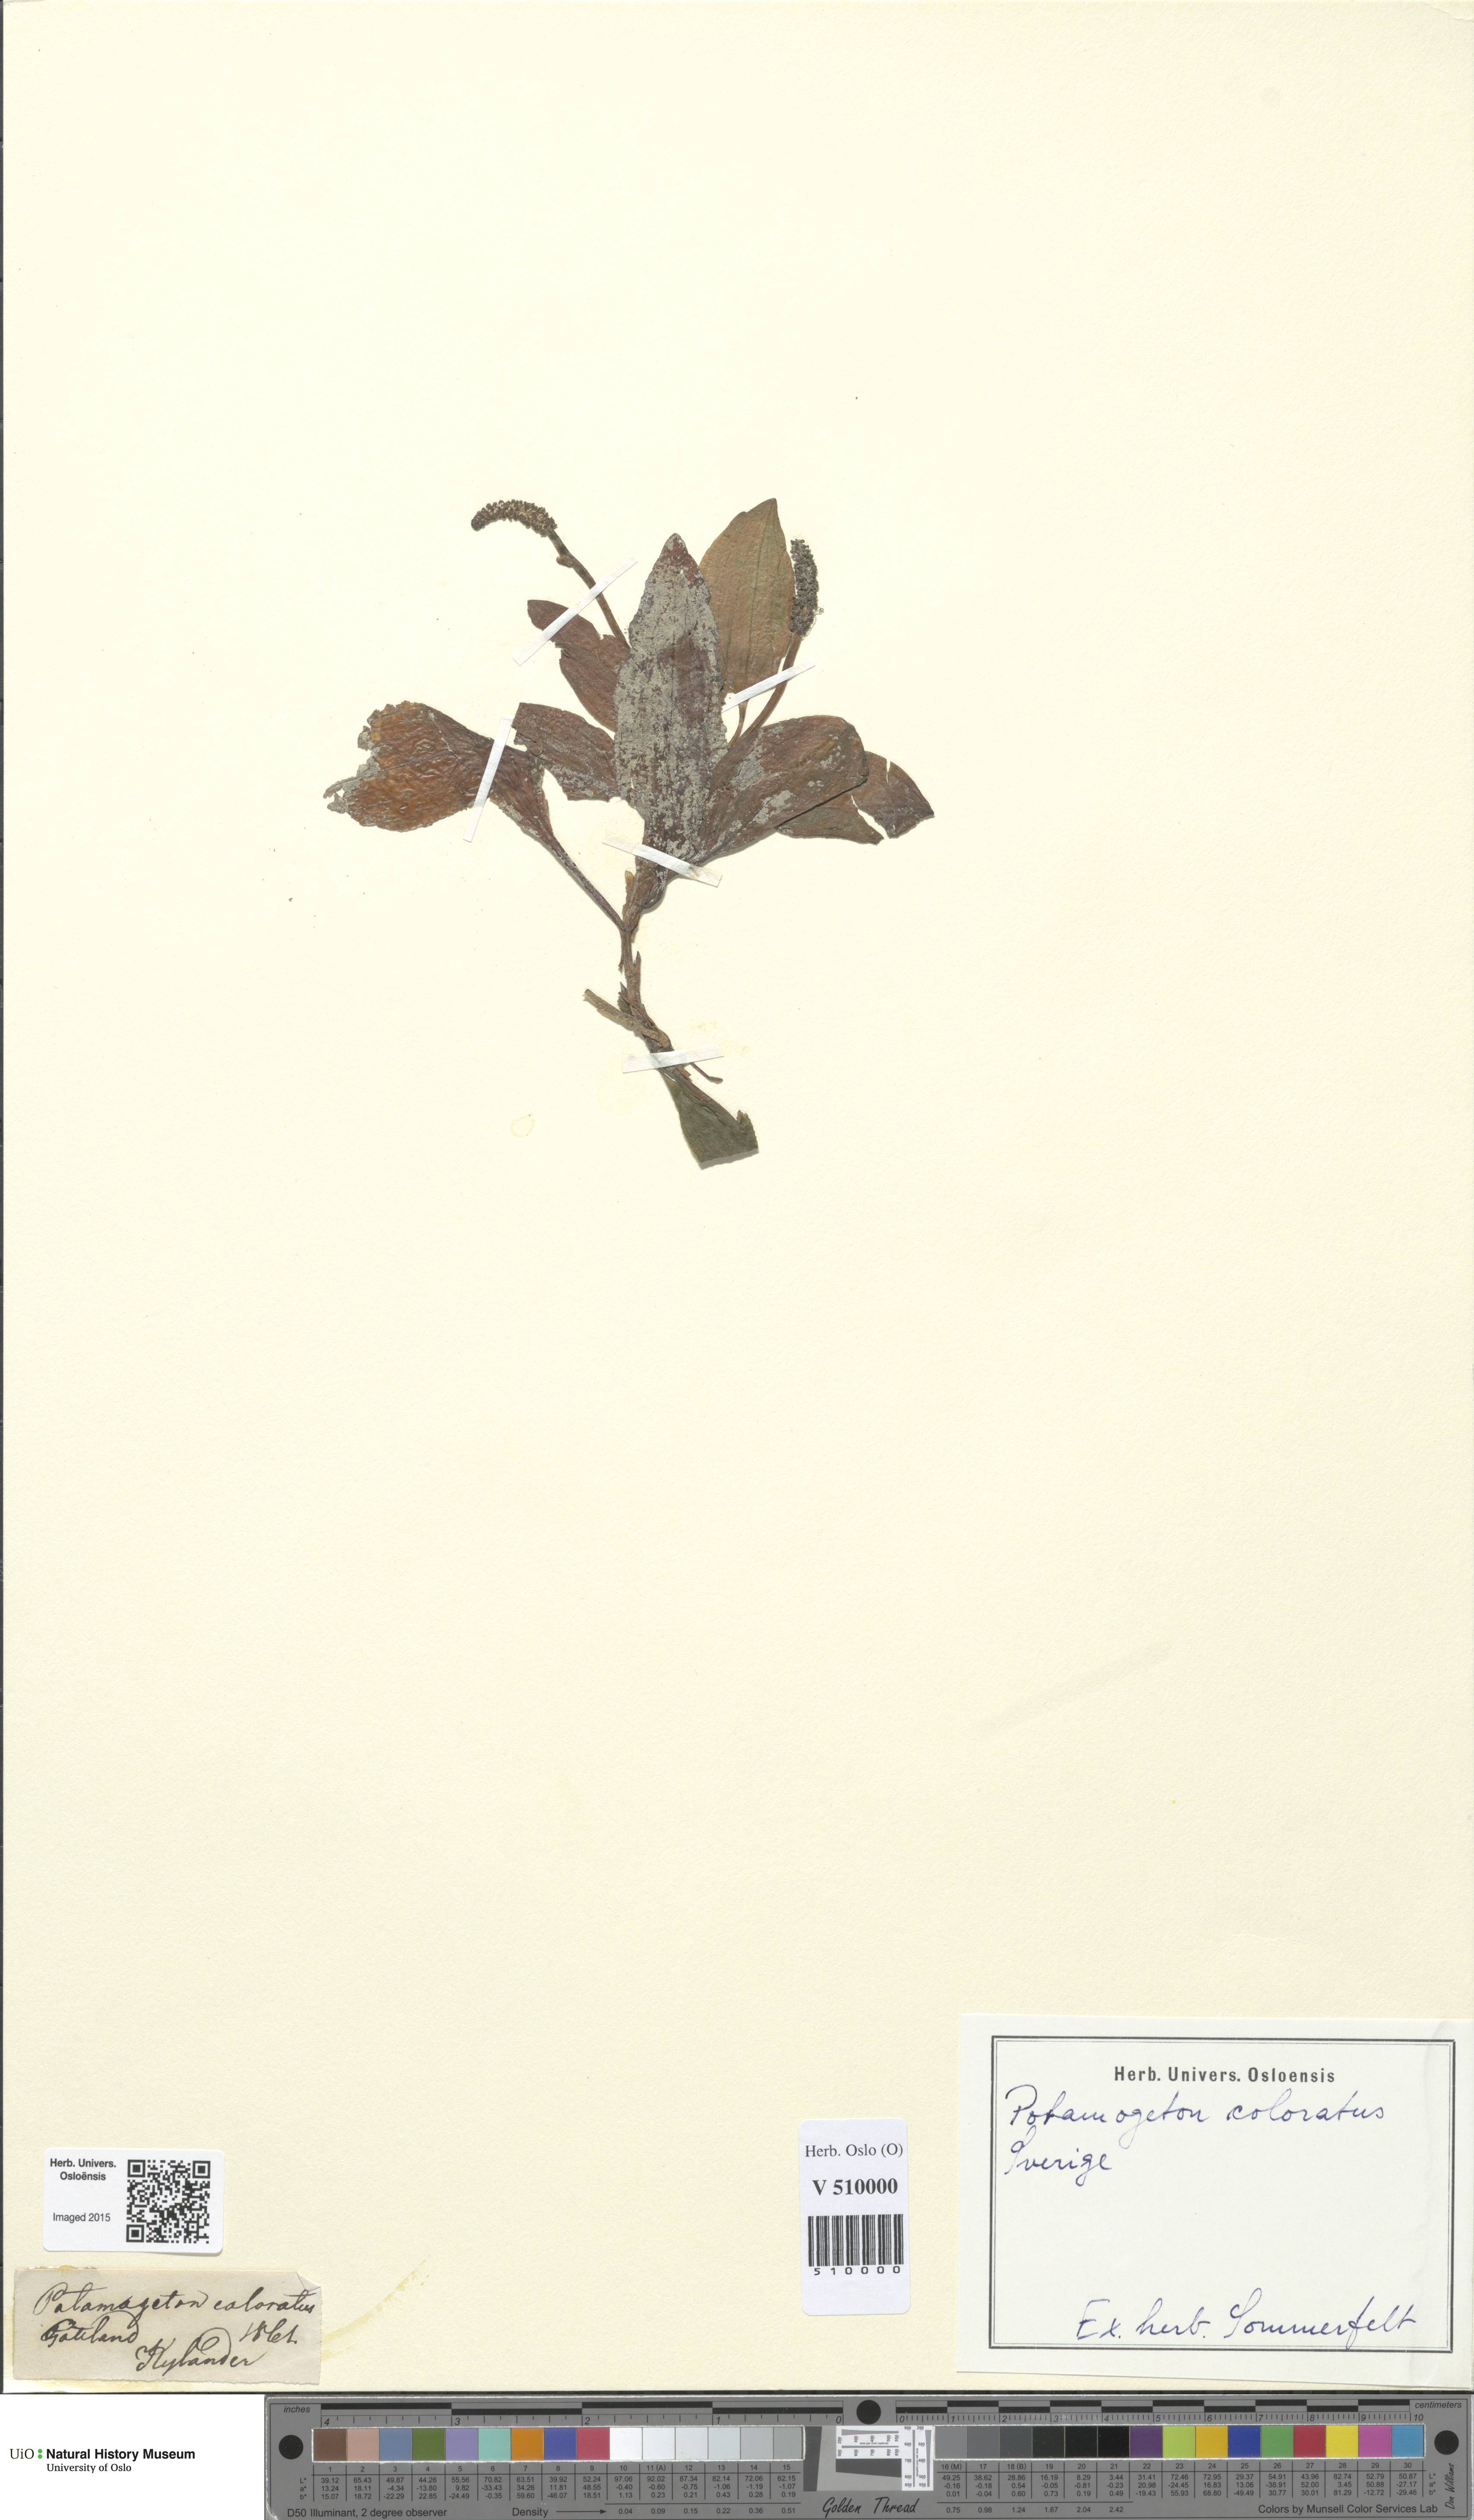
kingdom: Plantae
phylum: Tracheophyta
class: Liliopsida
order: Alismatales
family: Potamogetonaceae
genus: Potamogeton
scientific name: Potamogeton coloratus
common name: Fen pondweed
